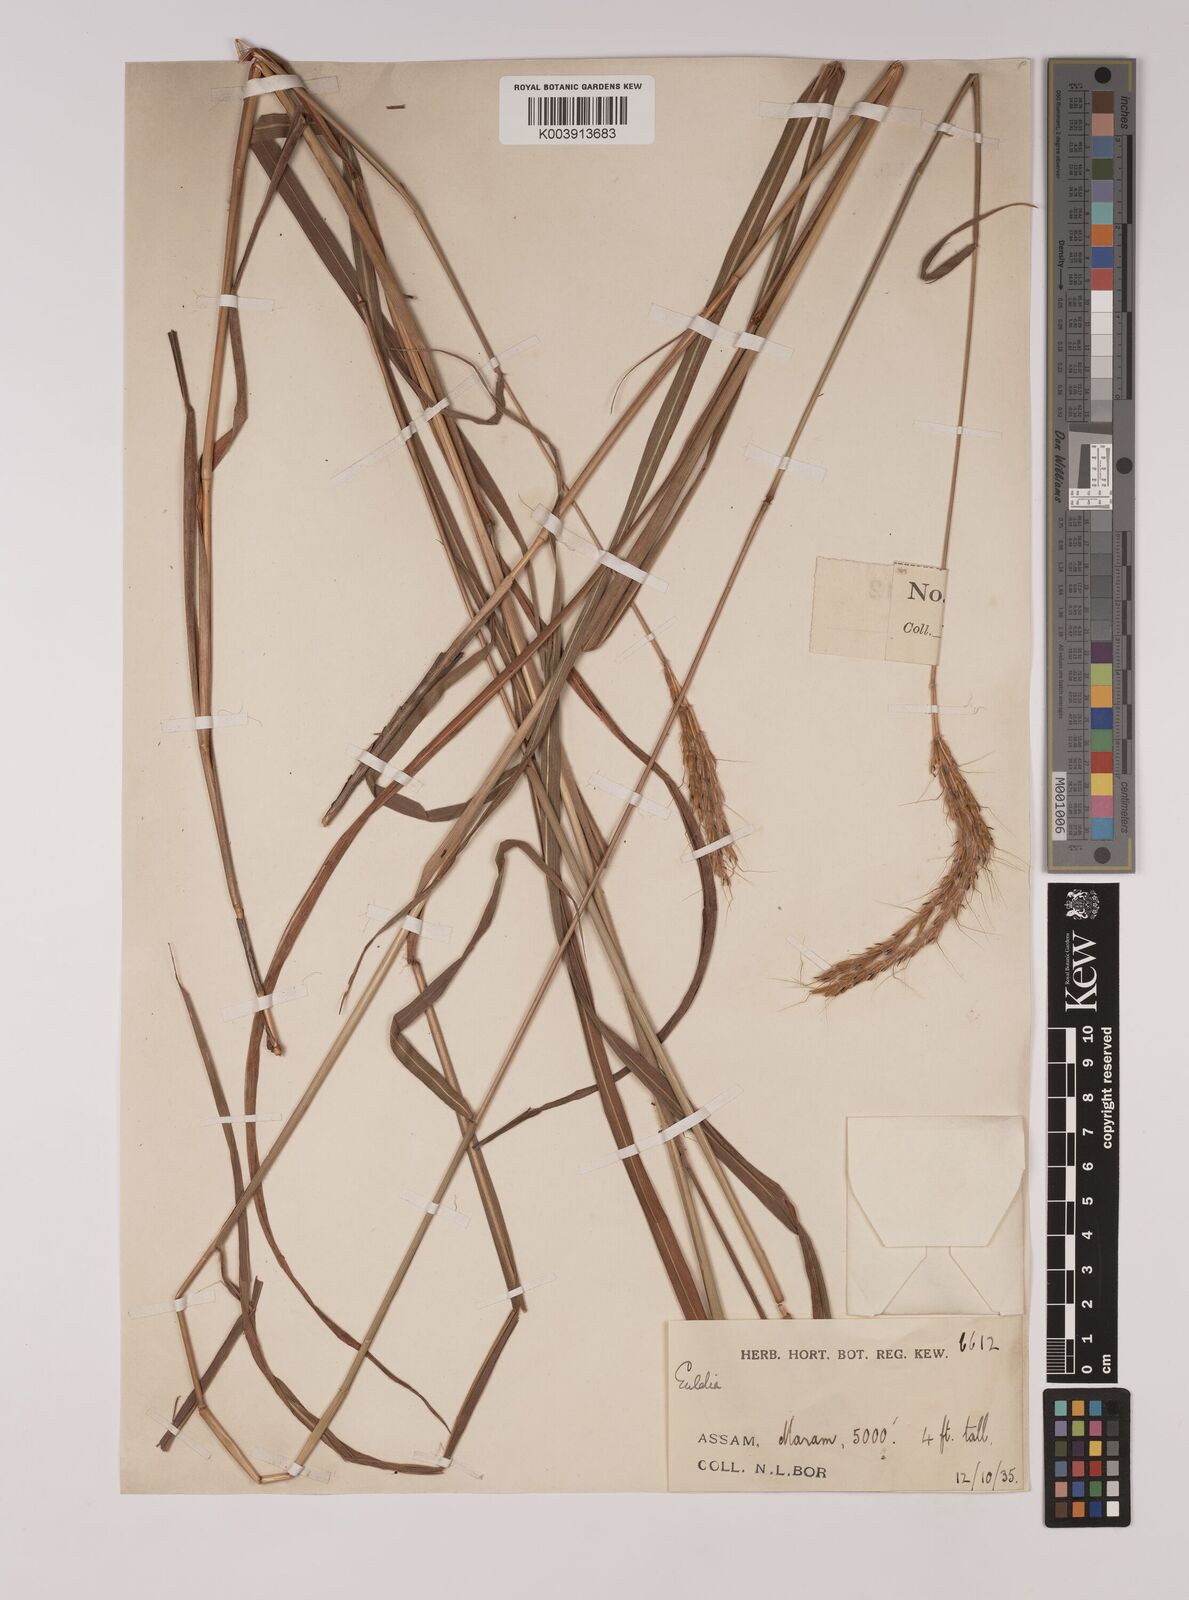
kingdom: Plantae
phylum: Tracheophyta
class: Liliopsida
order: Poales
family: Poaceae
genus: Pseudopogonatherum
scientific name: Pseudopogonatherum quadrinerve
